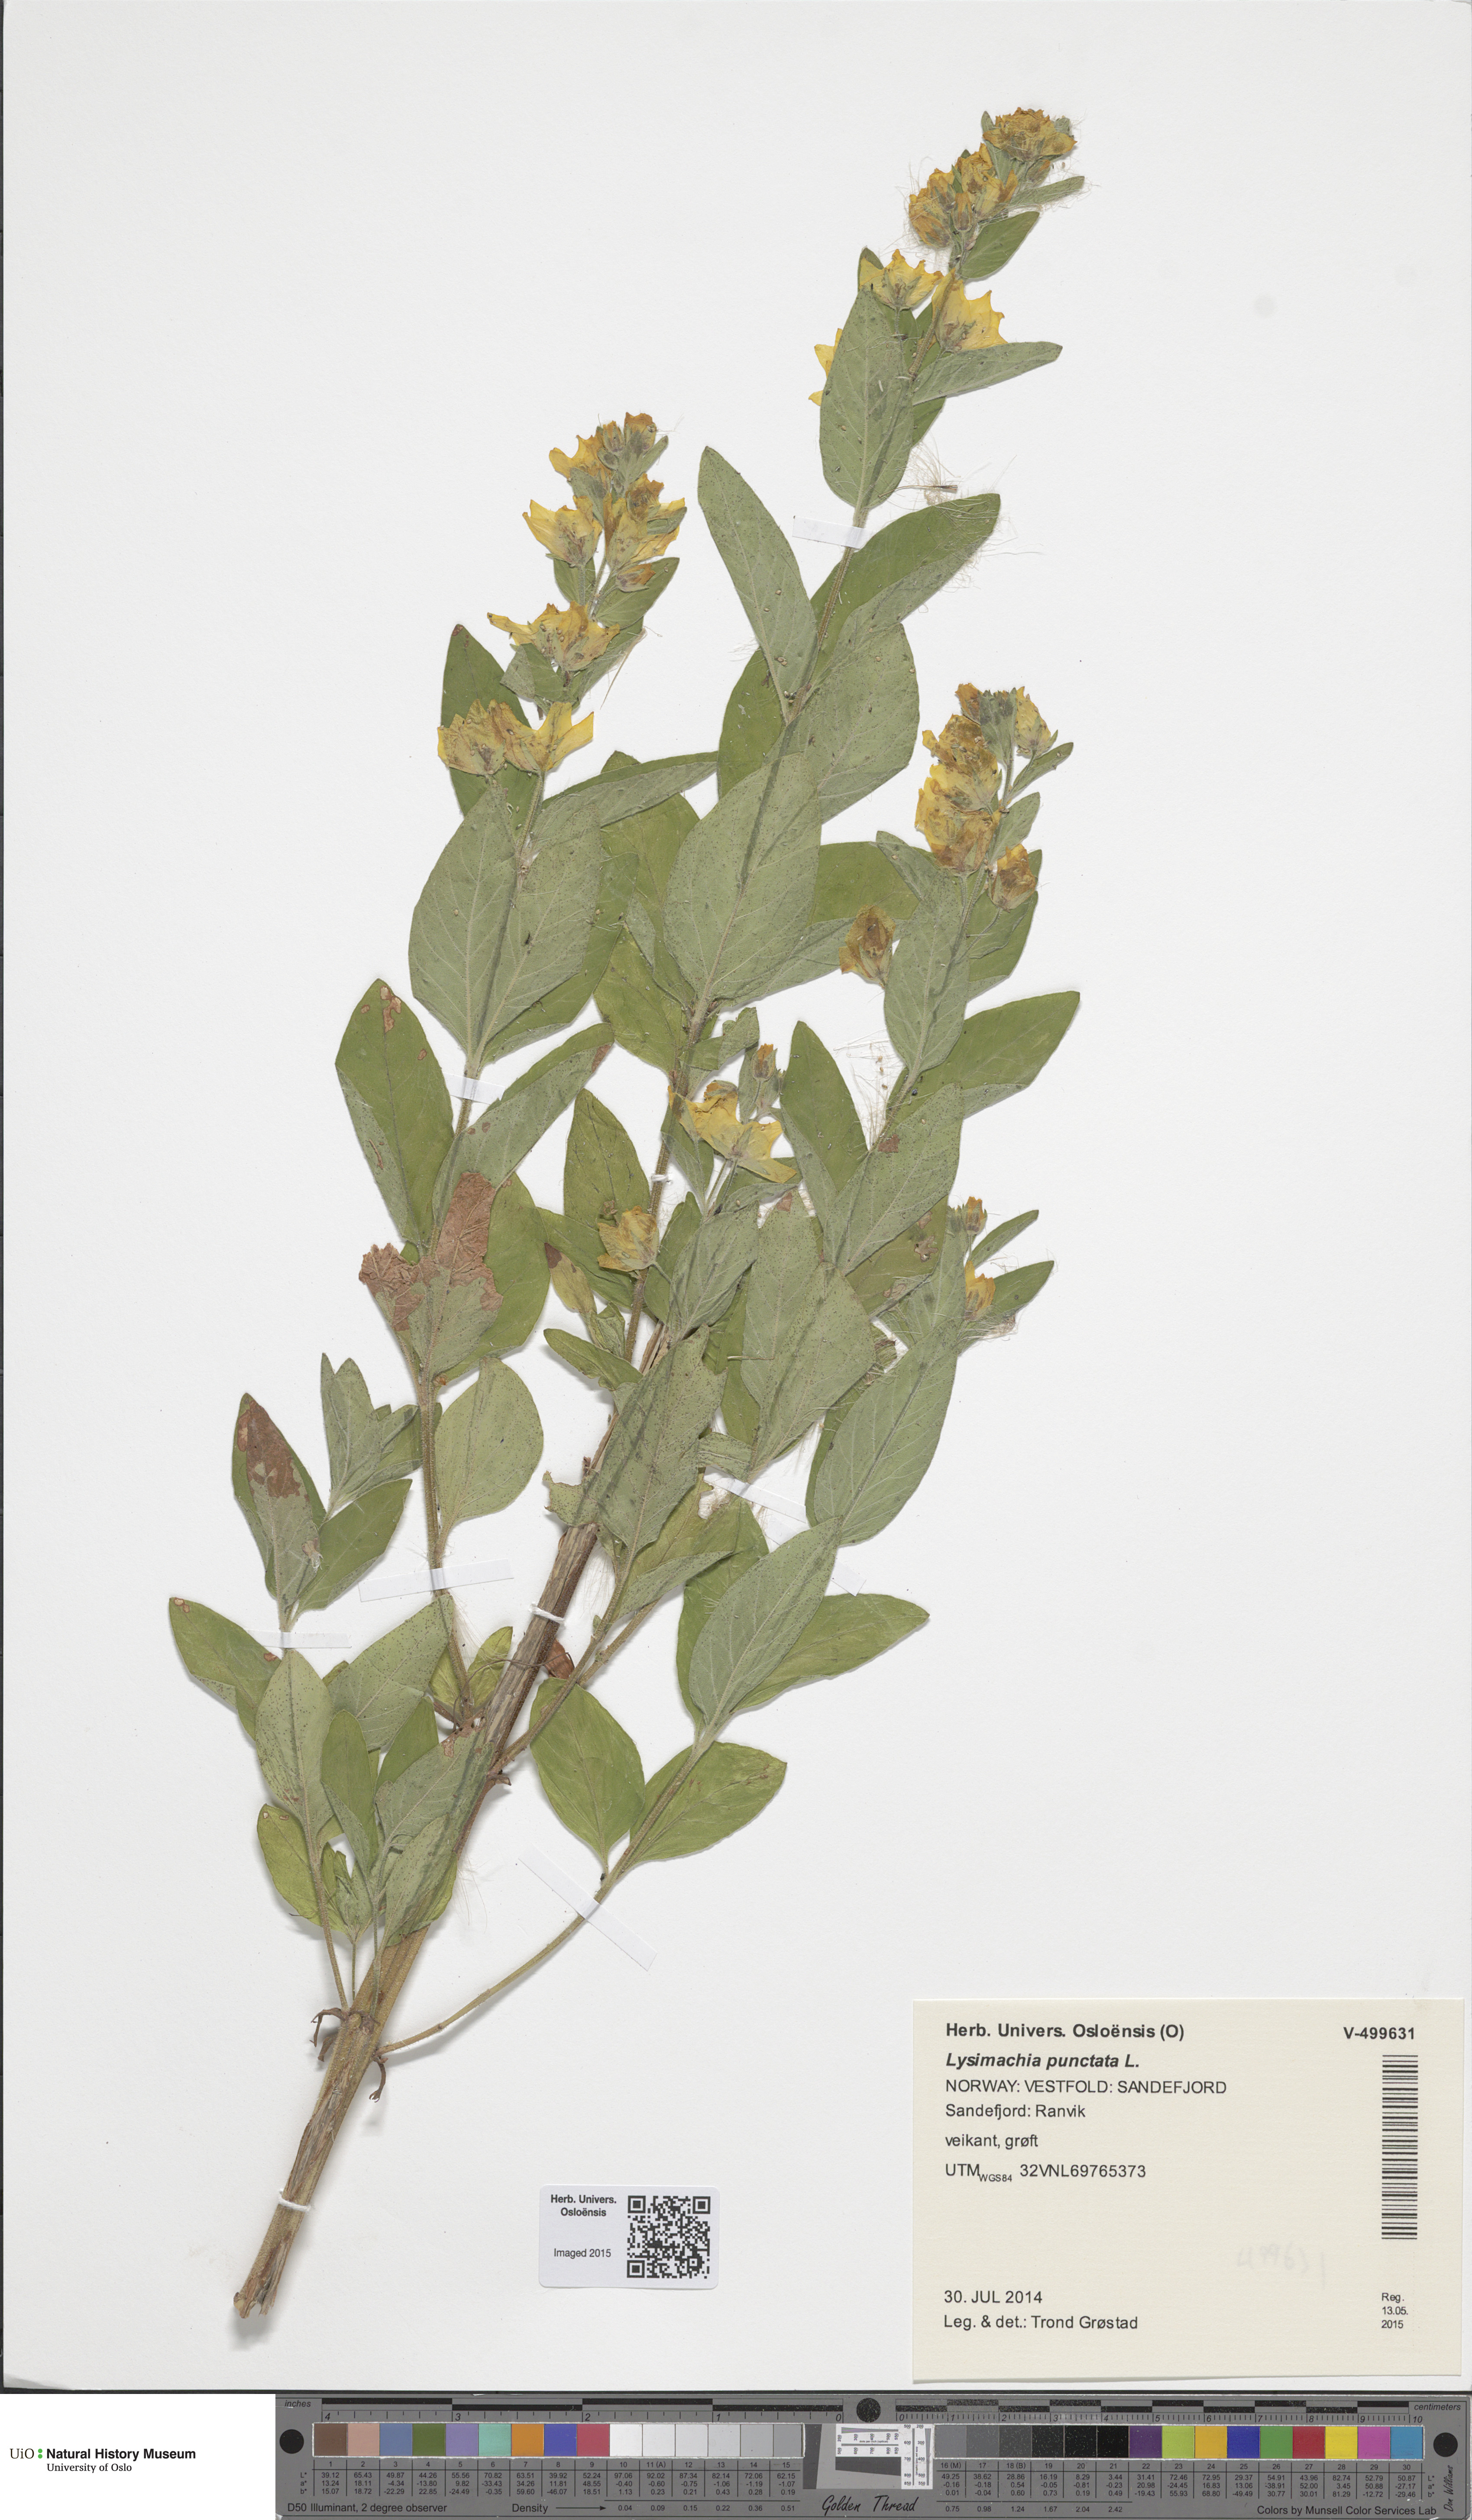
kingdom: Plantae
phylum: Tracheophyta
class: Magnoliopsida
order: Ericales
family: Primulaceae
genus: Lysimachia
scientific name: Lysimachia punctata
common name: Dotted loosestrife
